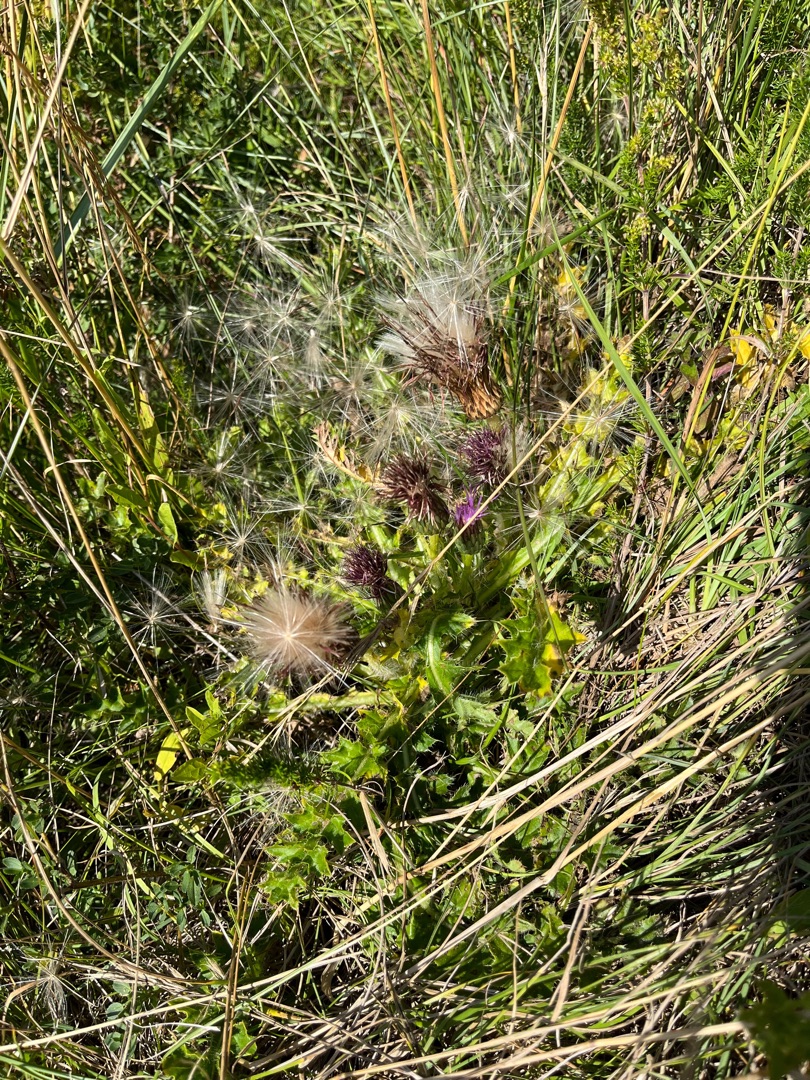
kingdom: Plantae
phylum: Tracheophyta
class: Magnoliopsida
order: Asterales
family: Asteraceae
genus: Cirsium
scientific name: Cirsium acaule
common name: Lav tidsel
